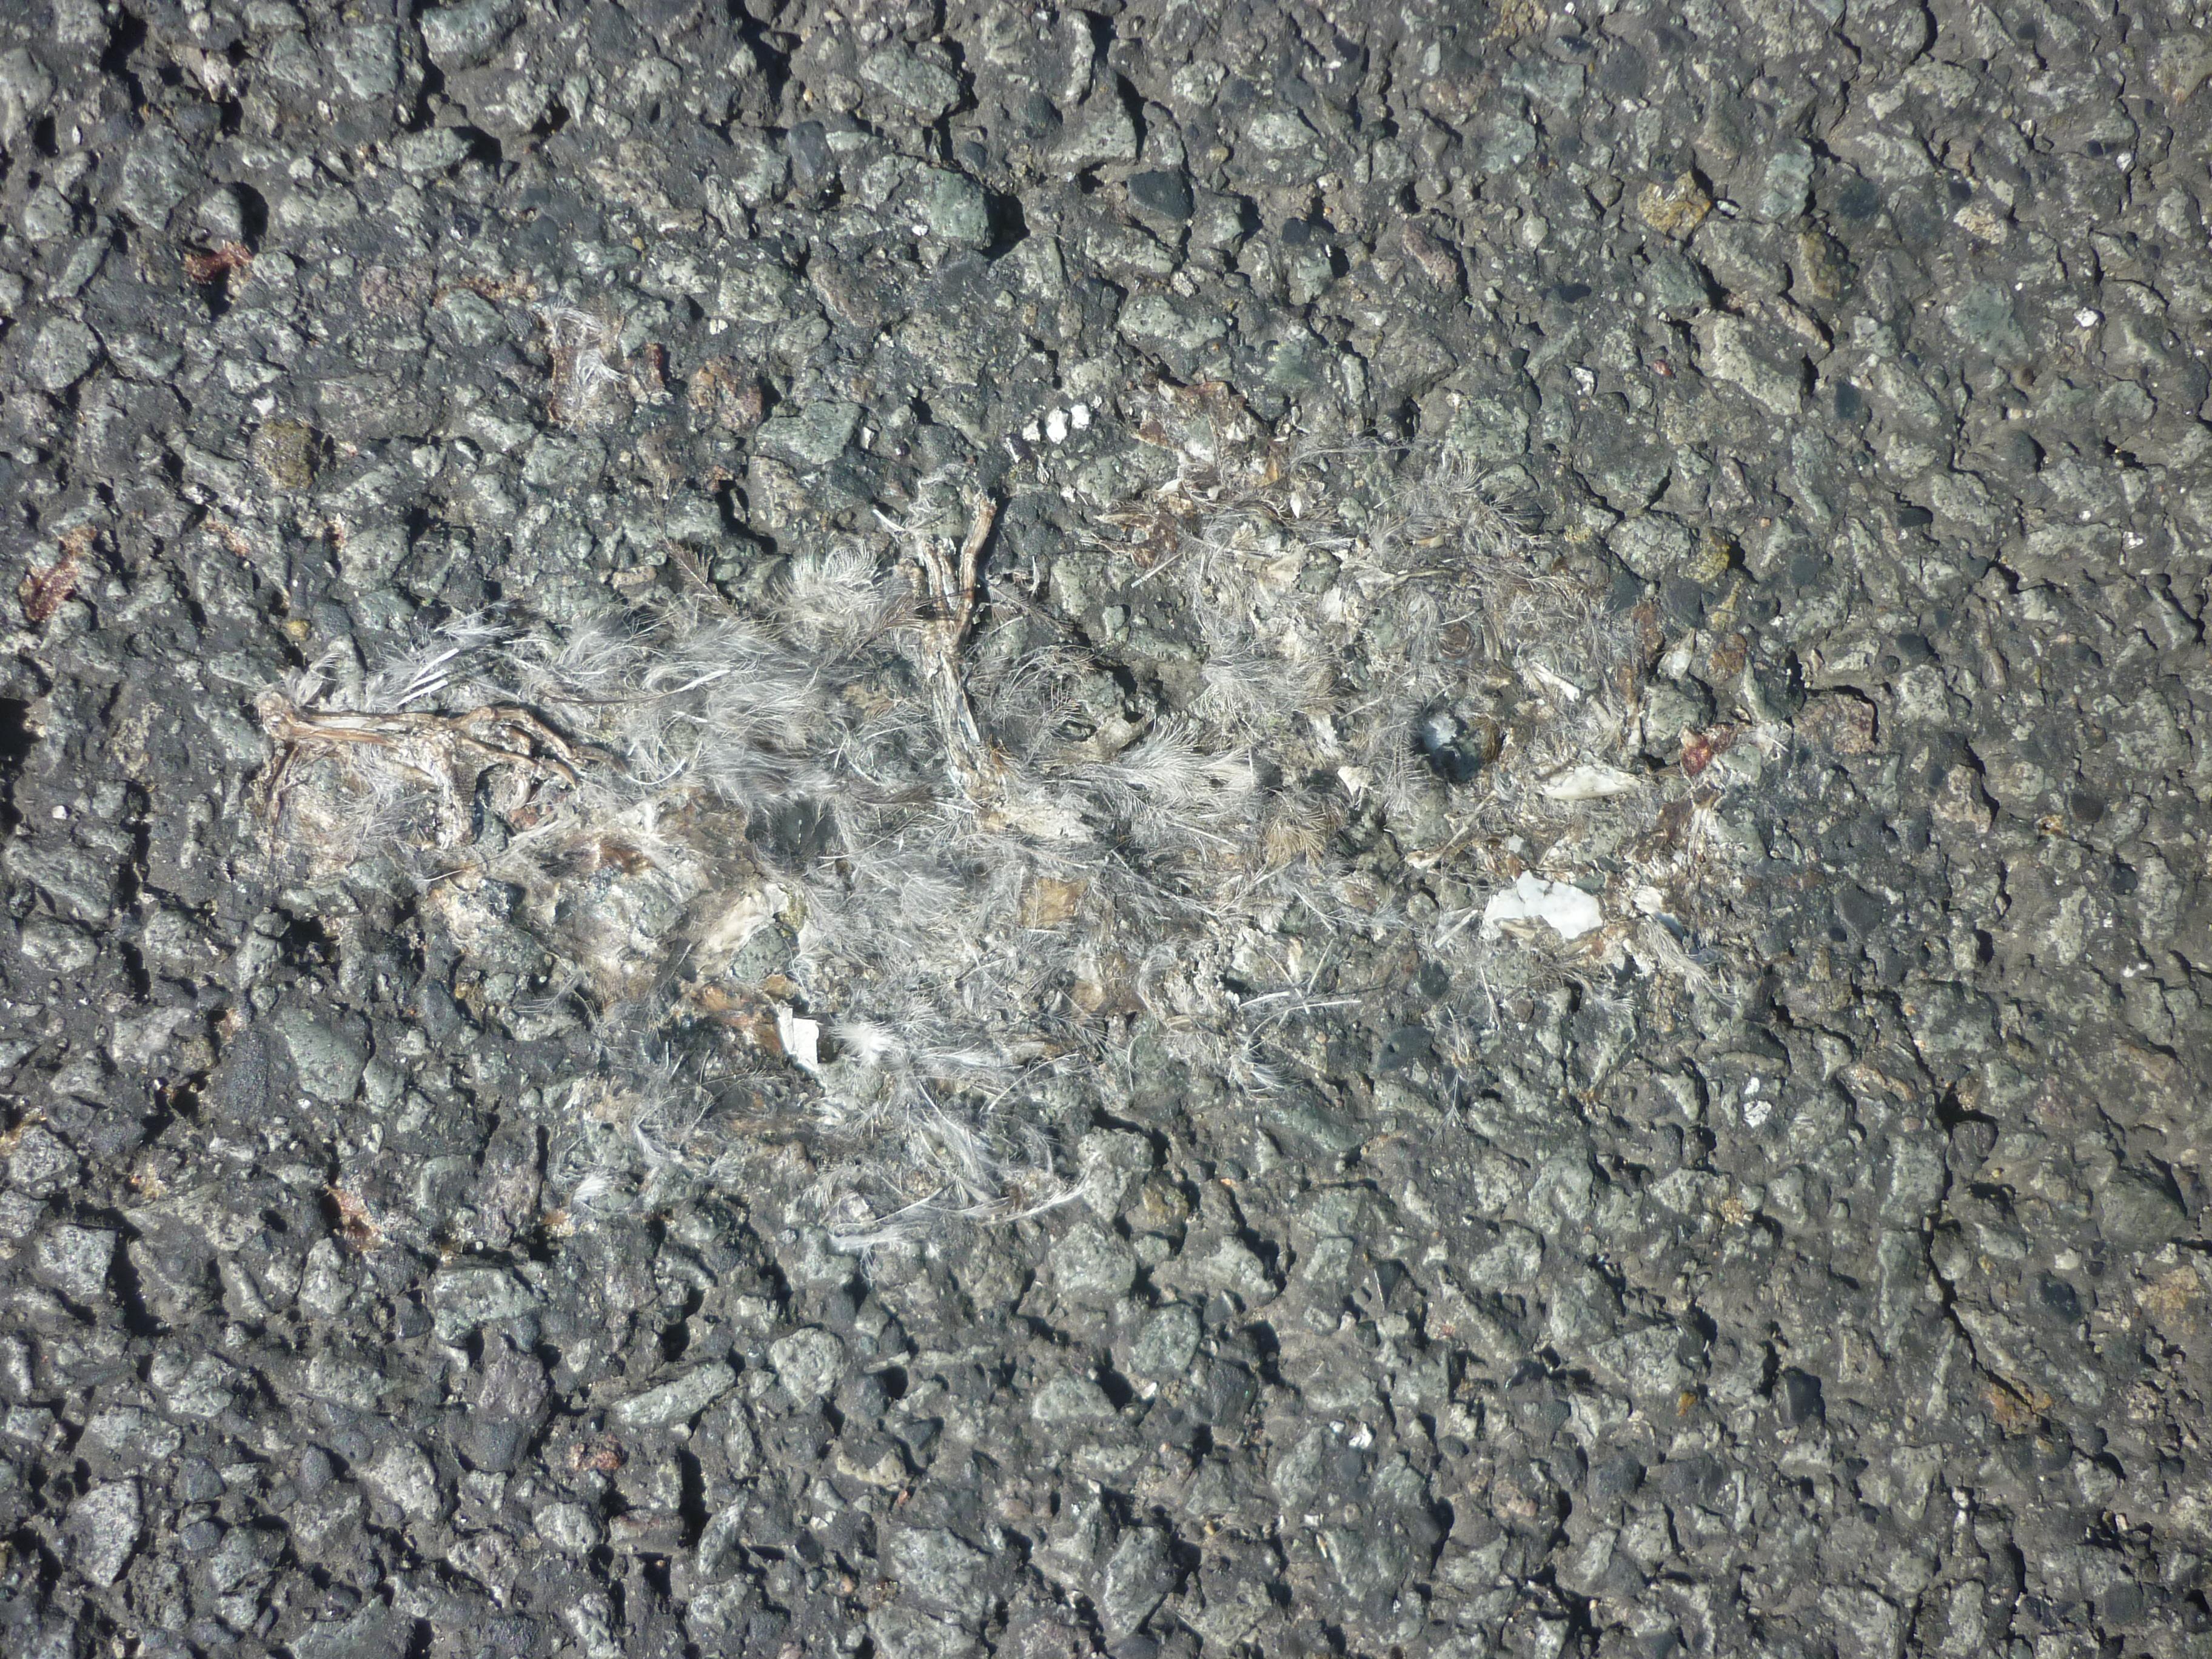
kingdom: Animalia
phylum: Chordata
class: Aves
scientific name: Aves
